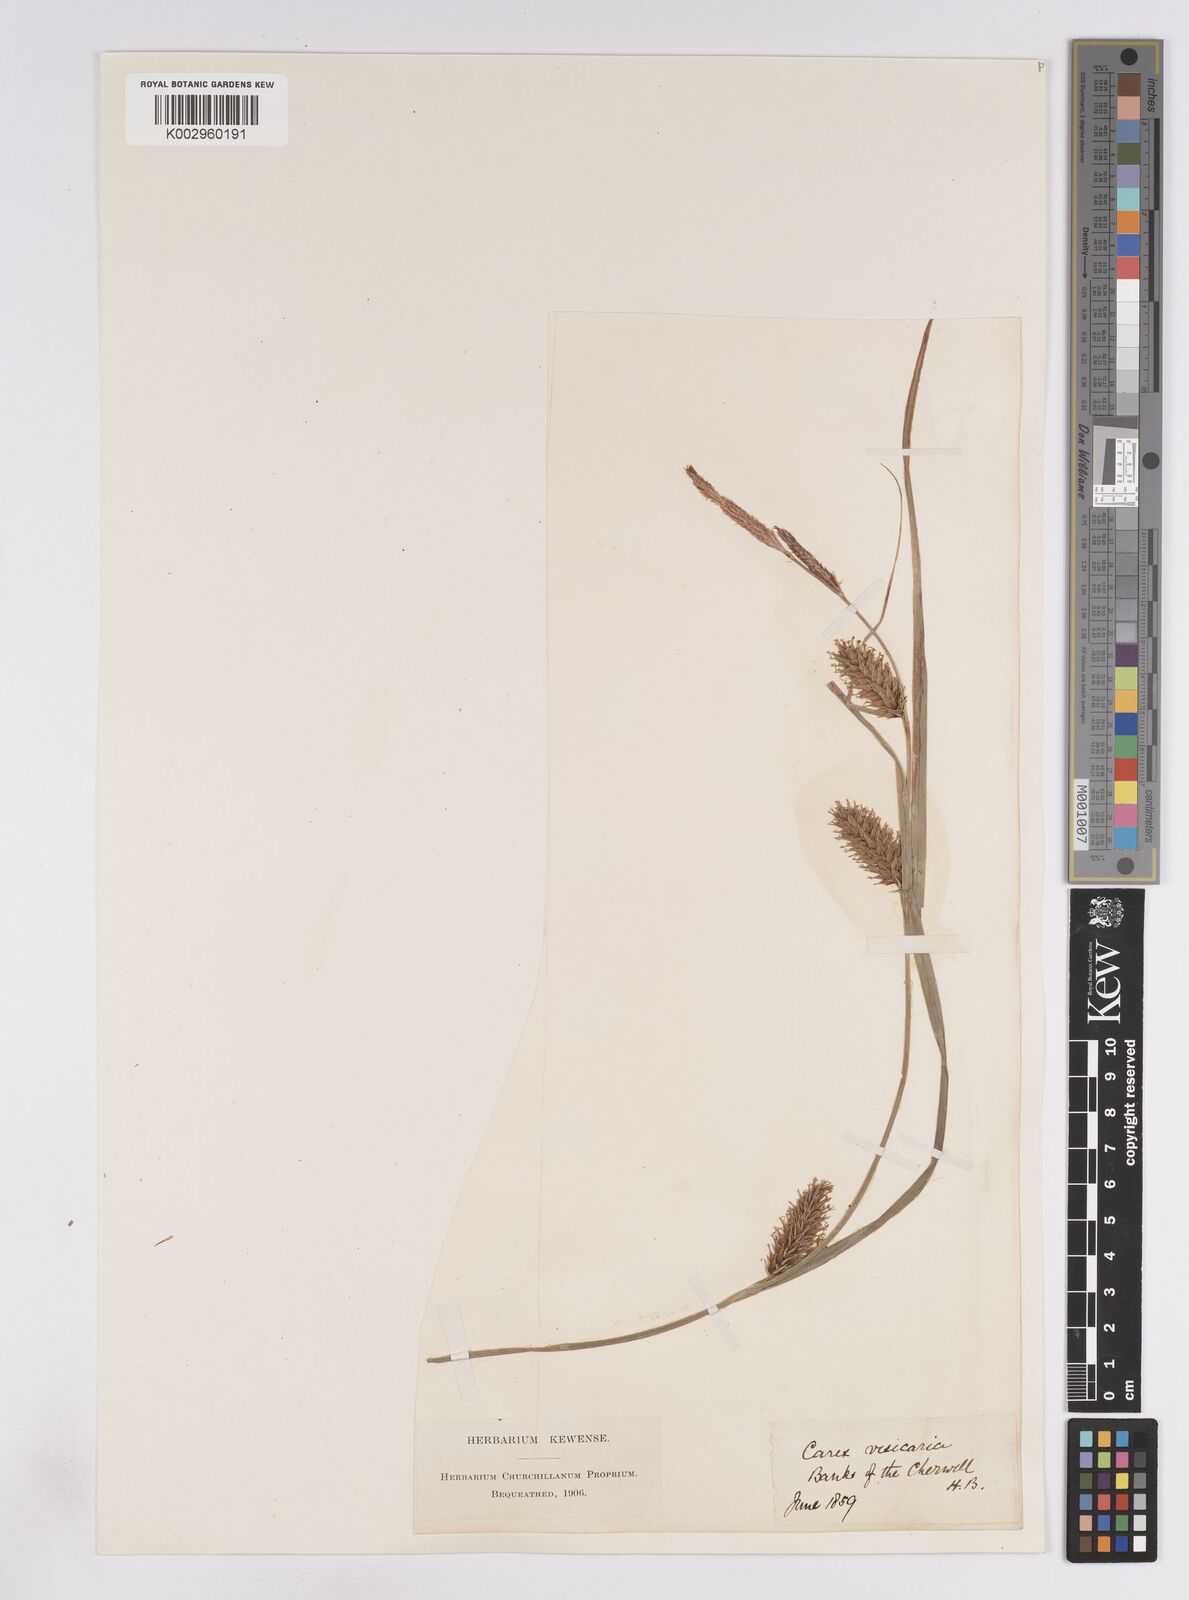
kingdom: Plantae
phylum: Tracheophyta
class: Liliopsida
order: Poales
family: Cyperaceae
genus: Carex
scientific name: Carex vesicaria
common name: Bladder-sedge
